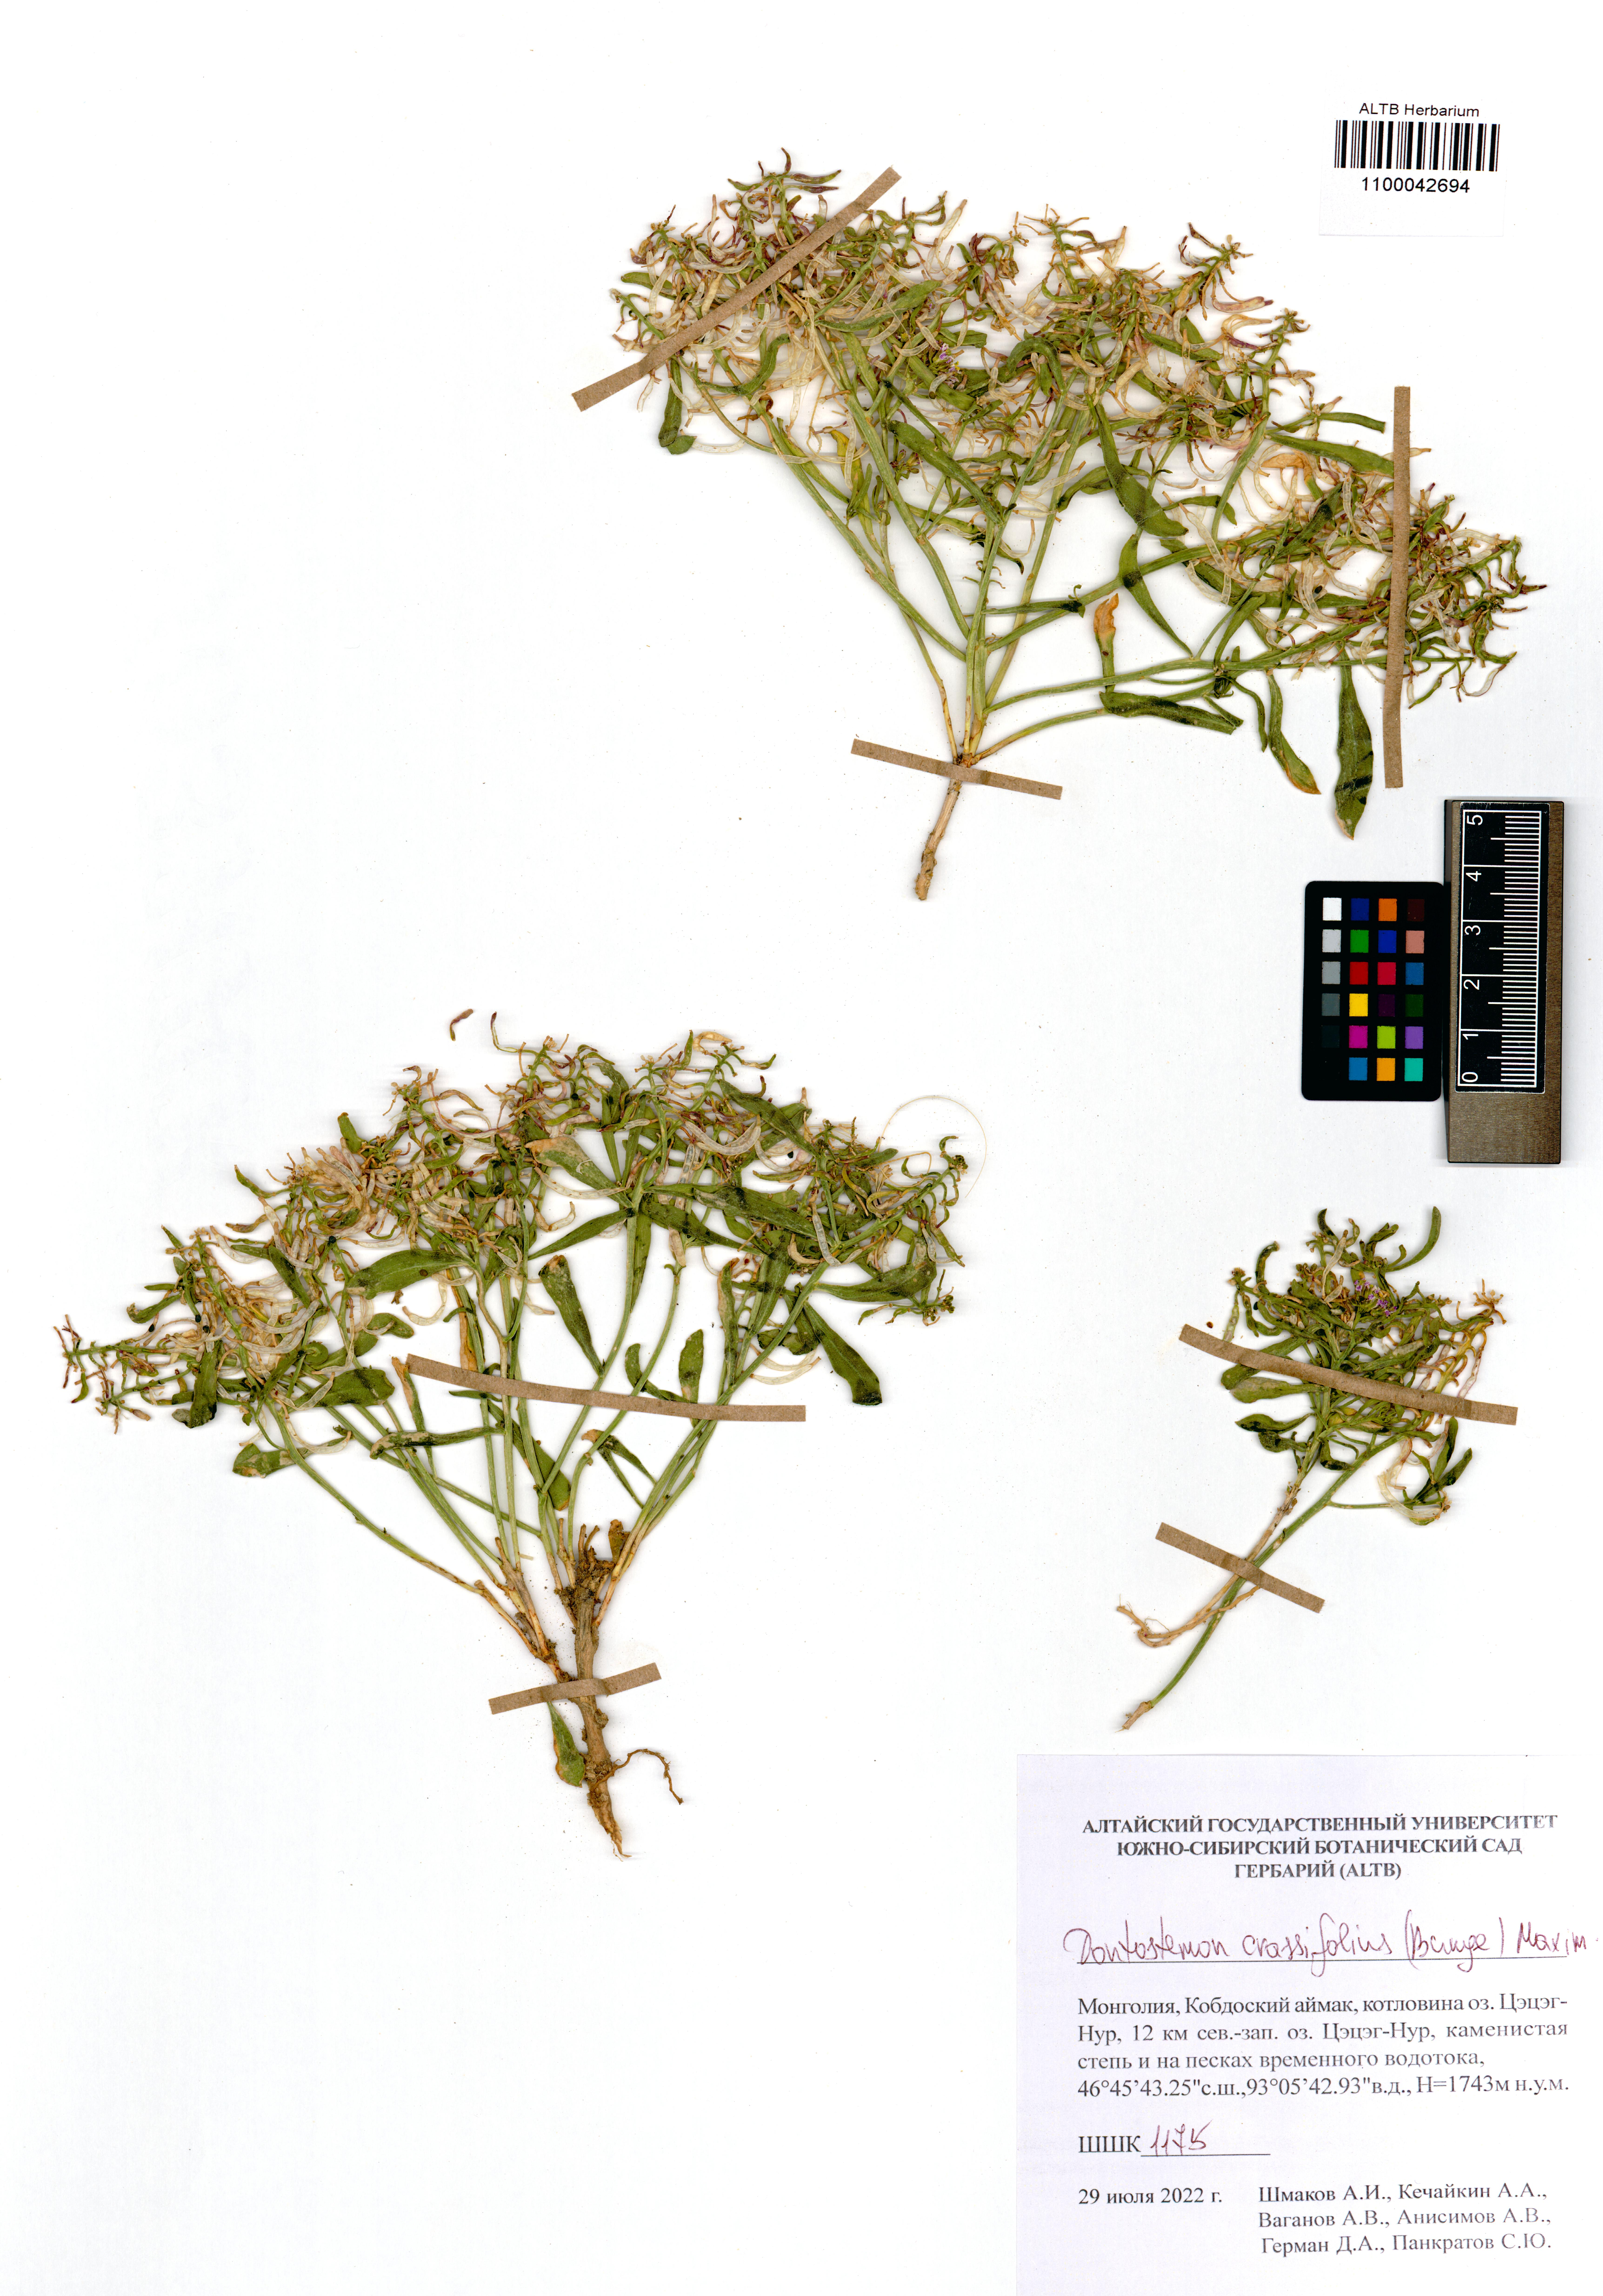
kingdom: Plantae
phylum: Tracheophyta
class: Magnoliopsida
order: Brassicales
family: Brassicaceae
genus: Dontostemon
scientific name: Dontostemon crassifolius
